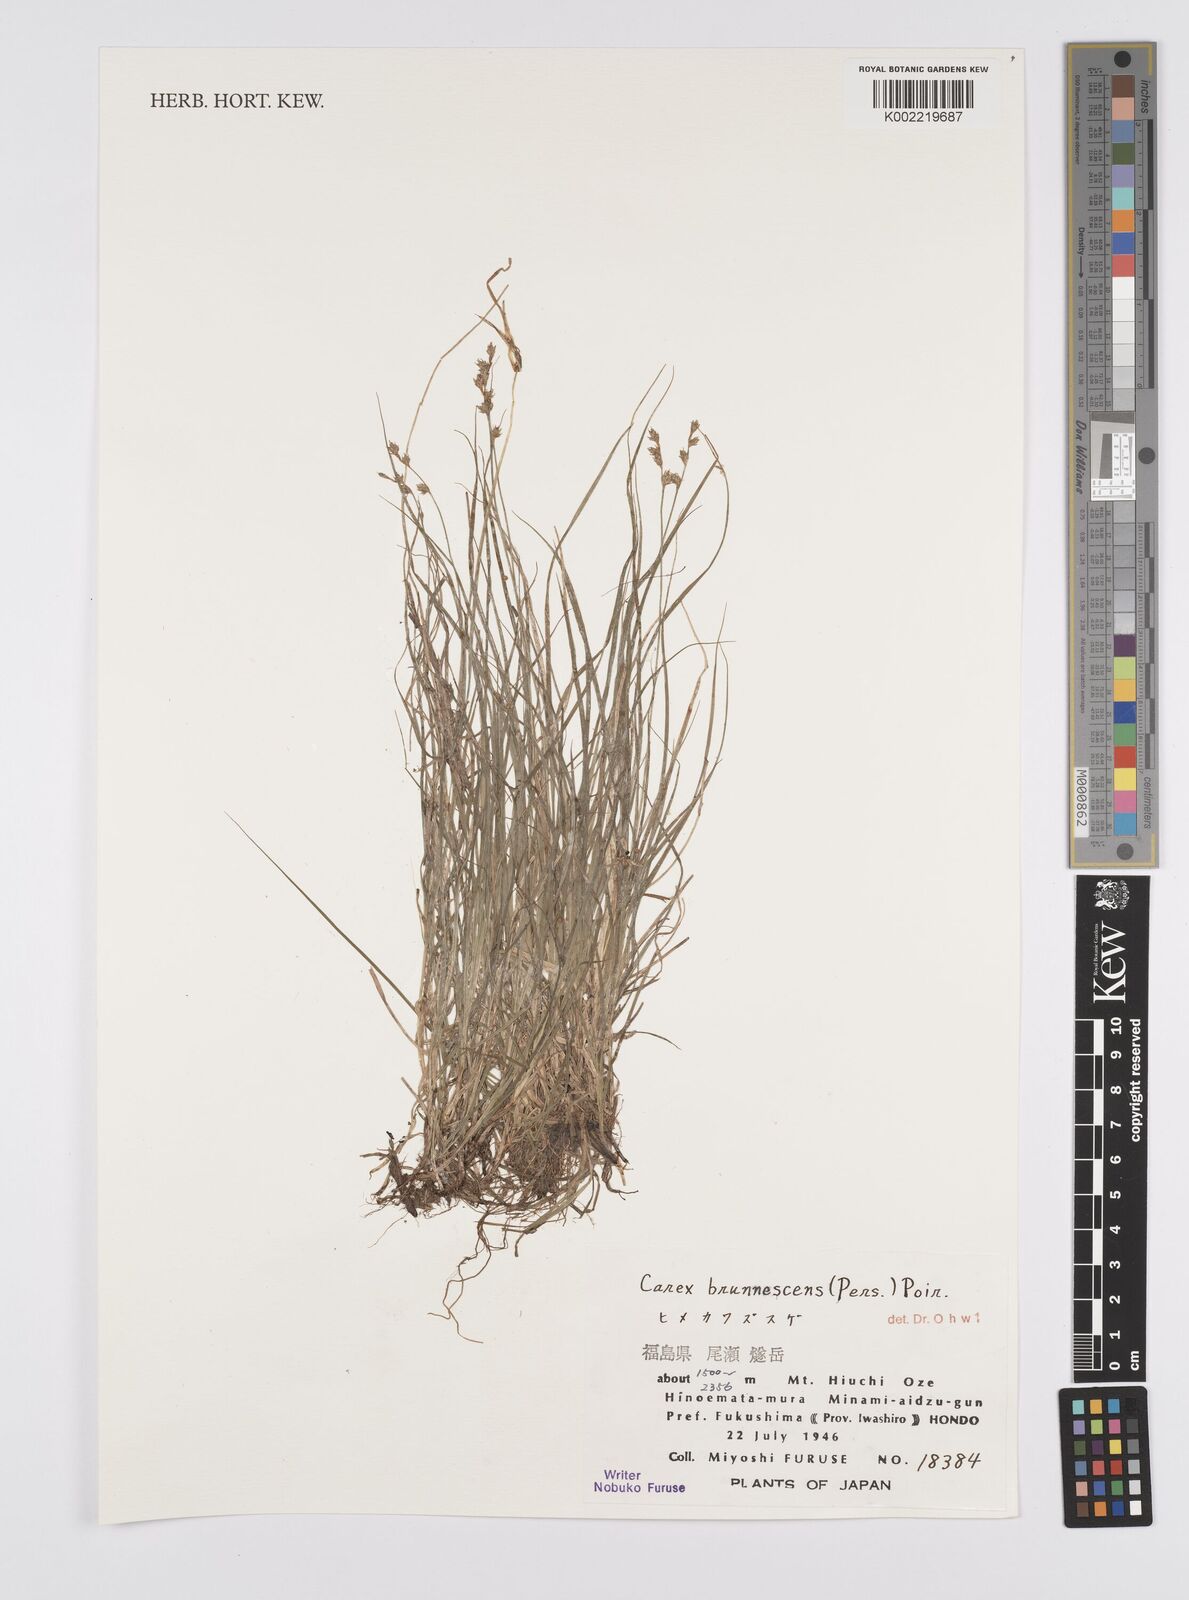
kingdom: Plantae
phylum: Tracheophyta
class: Liliopsida
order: Poales
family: Cyperaceae
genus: Carex
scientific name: Carex brunnescens
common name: Brown sedge
